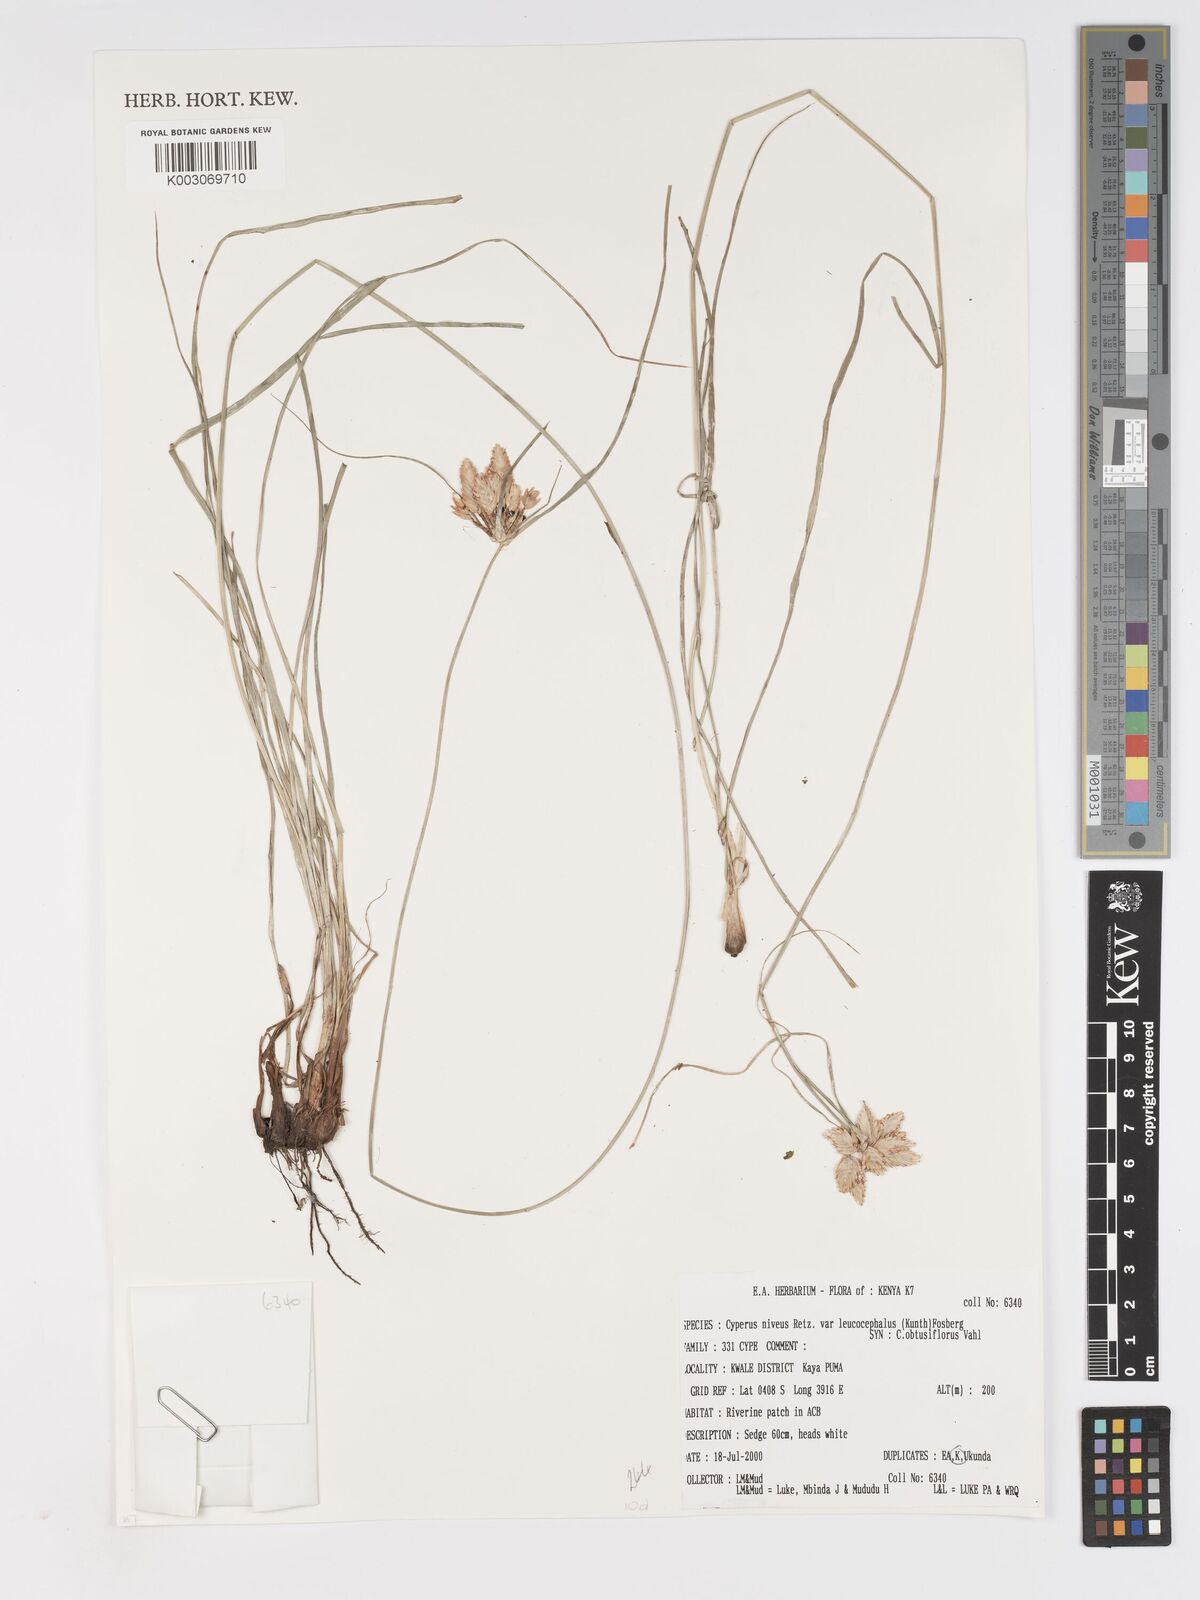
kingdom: Plantae
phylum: Tracheophyta
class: Liliopsida
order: Poales
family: Cyperaceae
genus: Cyperus
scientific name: Cyperus niveus
